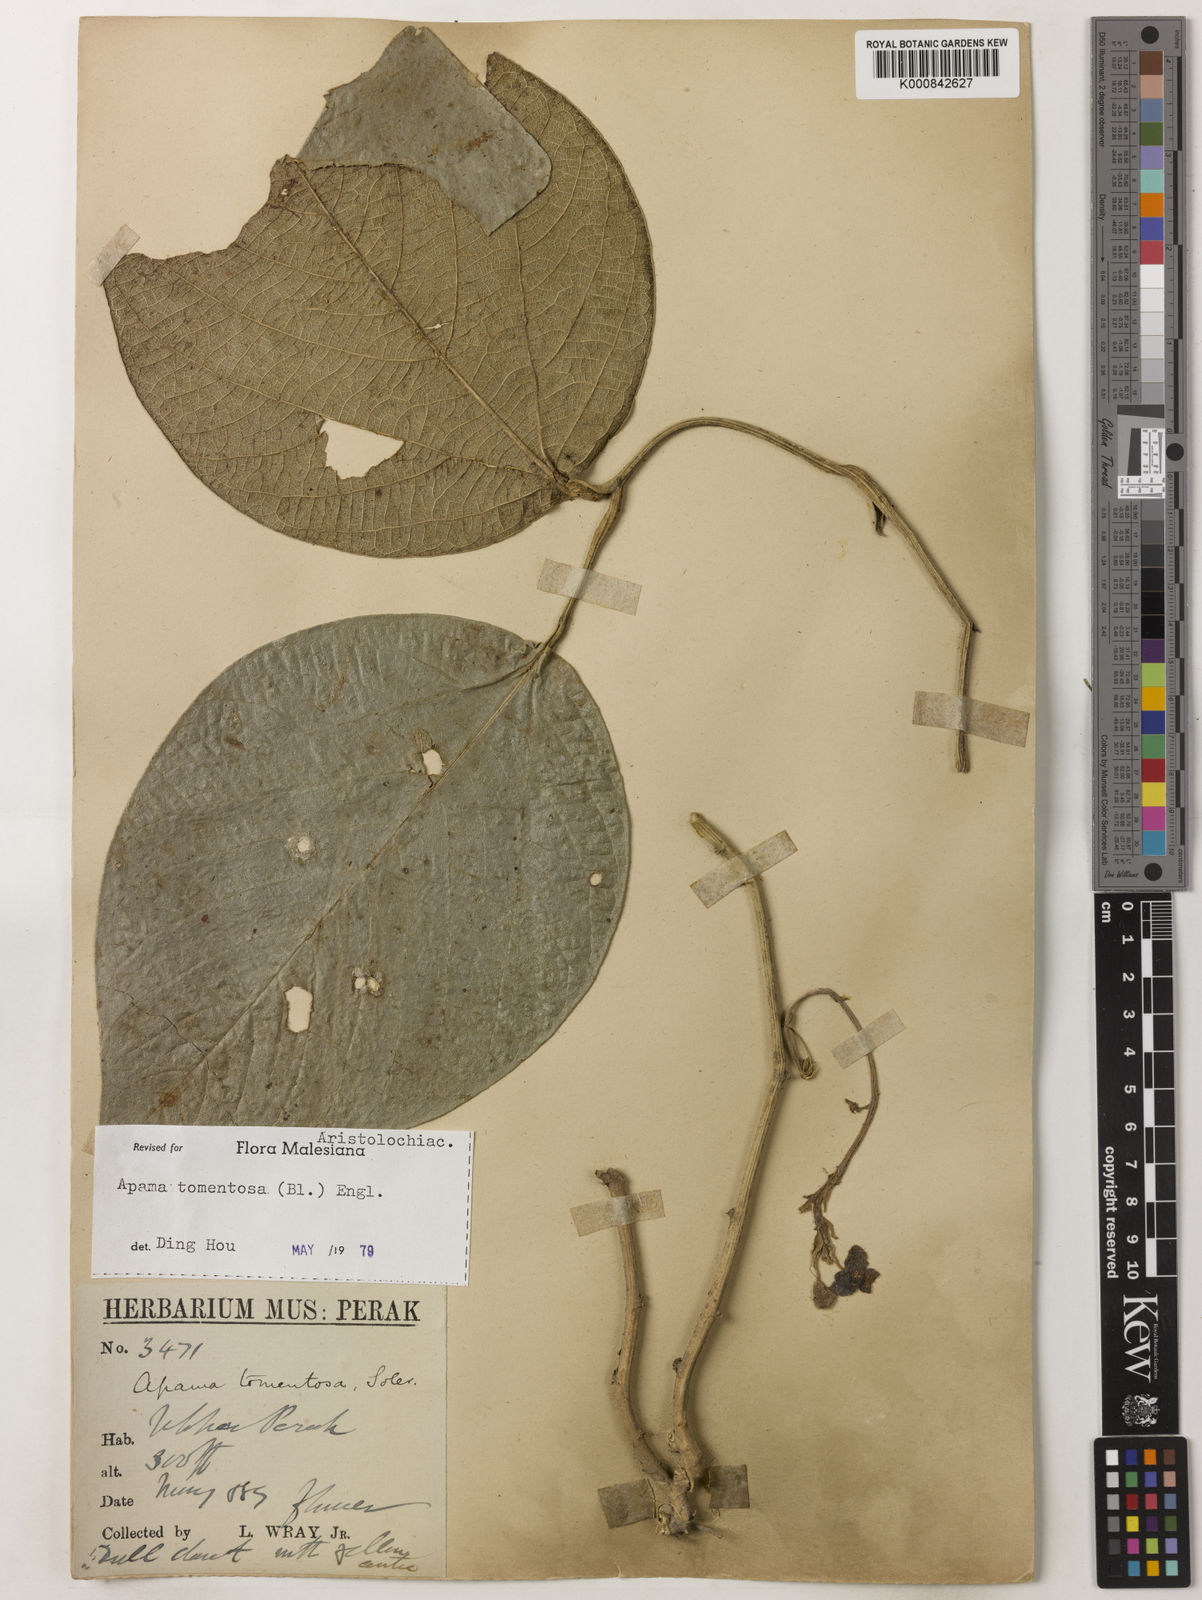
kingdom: Plantae
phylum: Tracheophyta
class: Magnoliopsida
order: Piperales
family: Aristolochiaceae
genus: Thottea
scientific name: Thottea tomentosa
